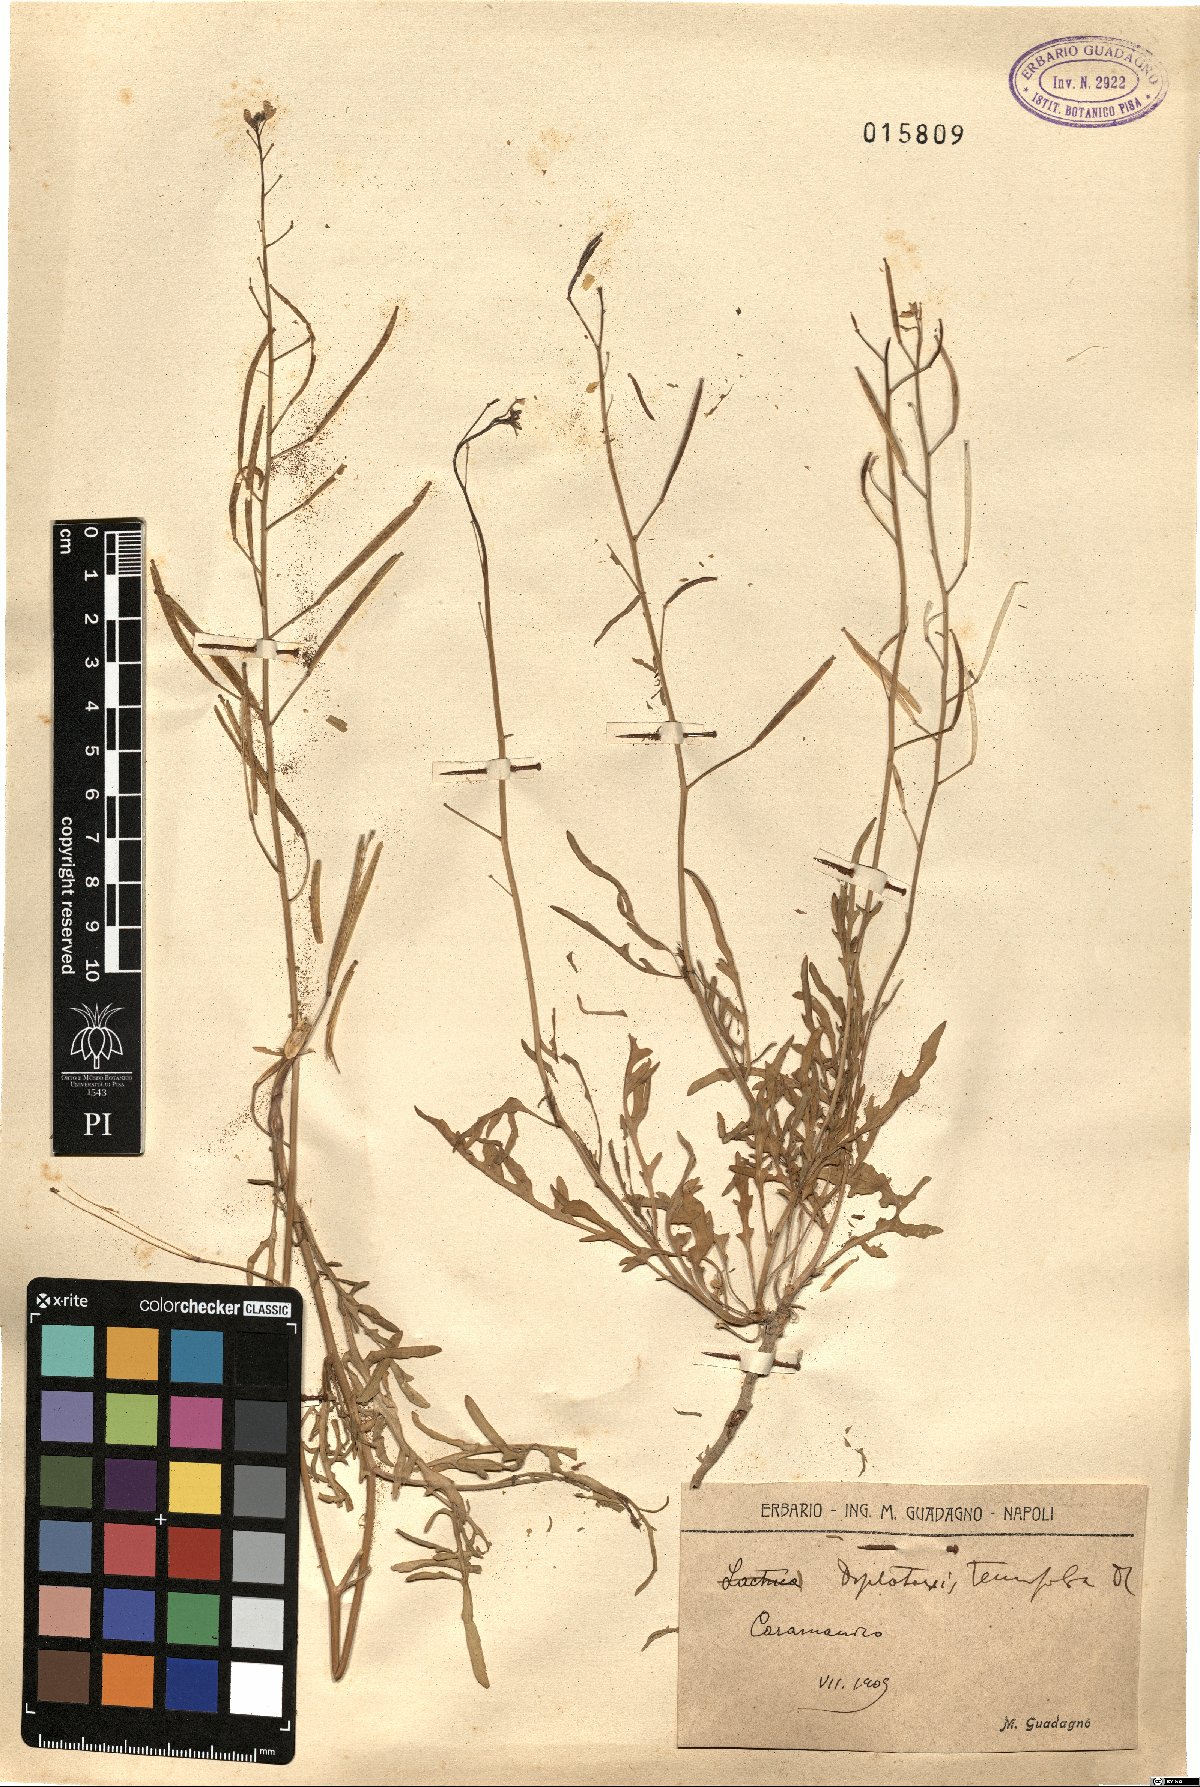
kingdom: Plantae
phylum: Tracheophyta
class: Magnoliopsida
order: Brassicales
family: Brassicaceae
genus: Diplotaxis
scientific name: Diplotaxis tenuifolia
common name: Perennial wall-rocket
